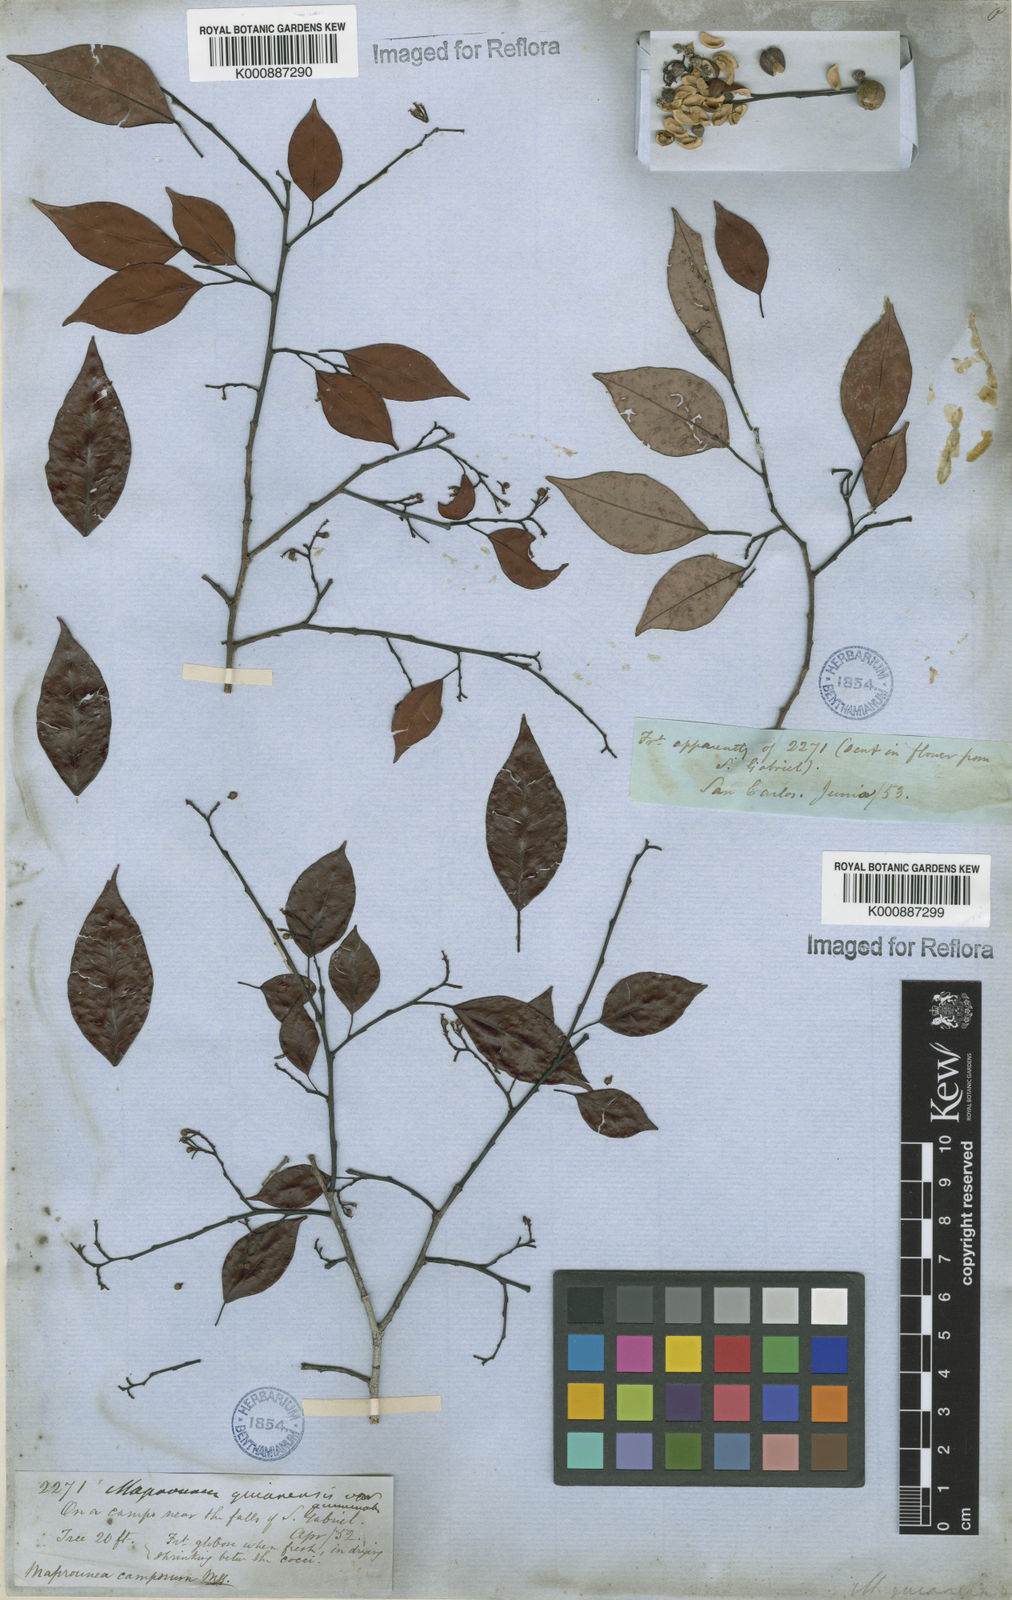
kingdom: Plantae
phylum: Tracheophyta
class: Magnoliopsida
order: Malpighiales
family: Euphorbiaceae
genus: Maprounea
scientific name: Maprounea guianensis
